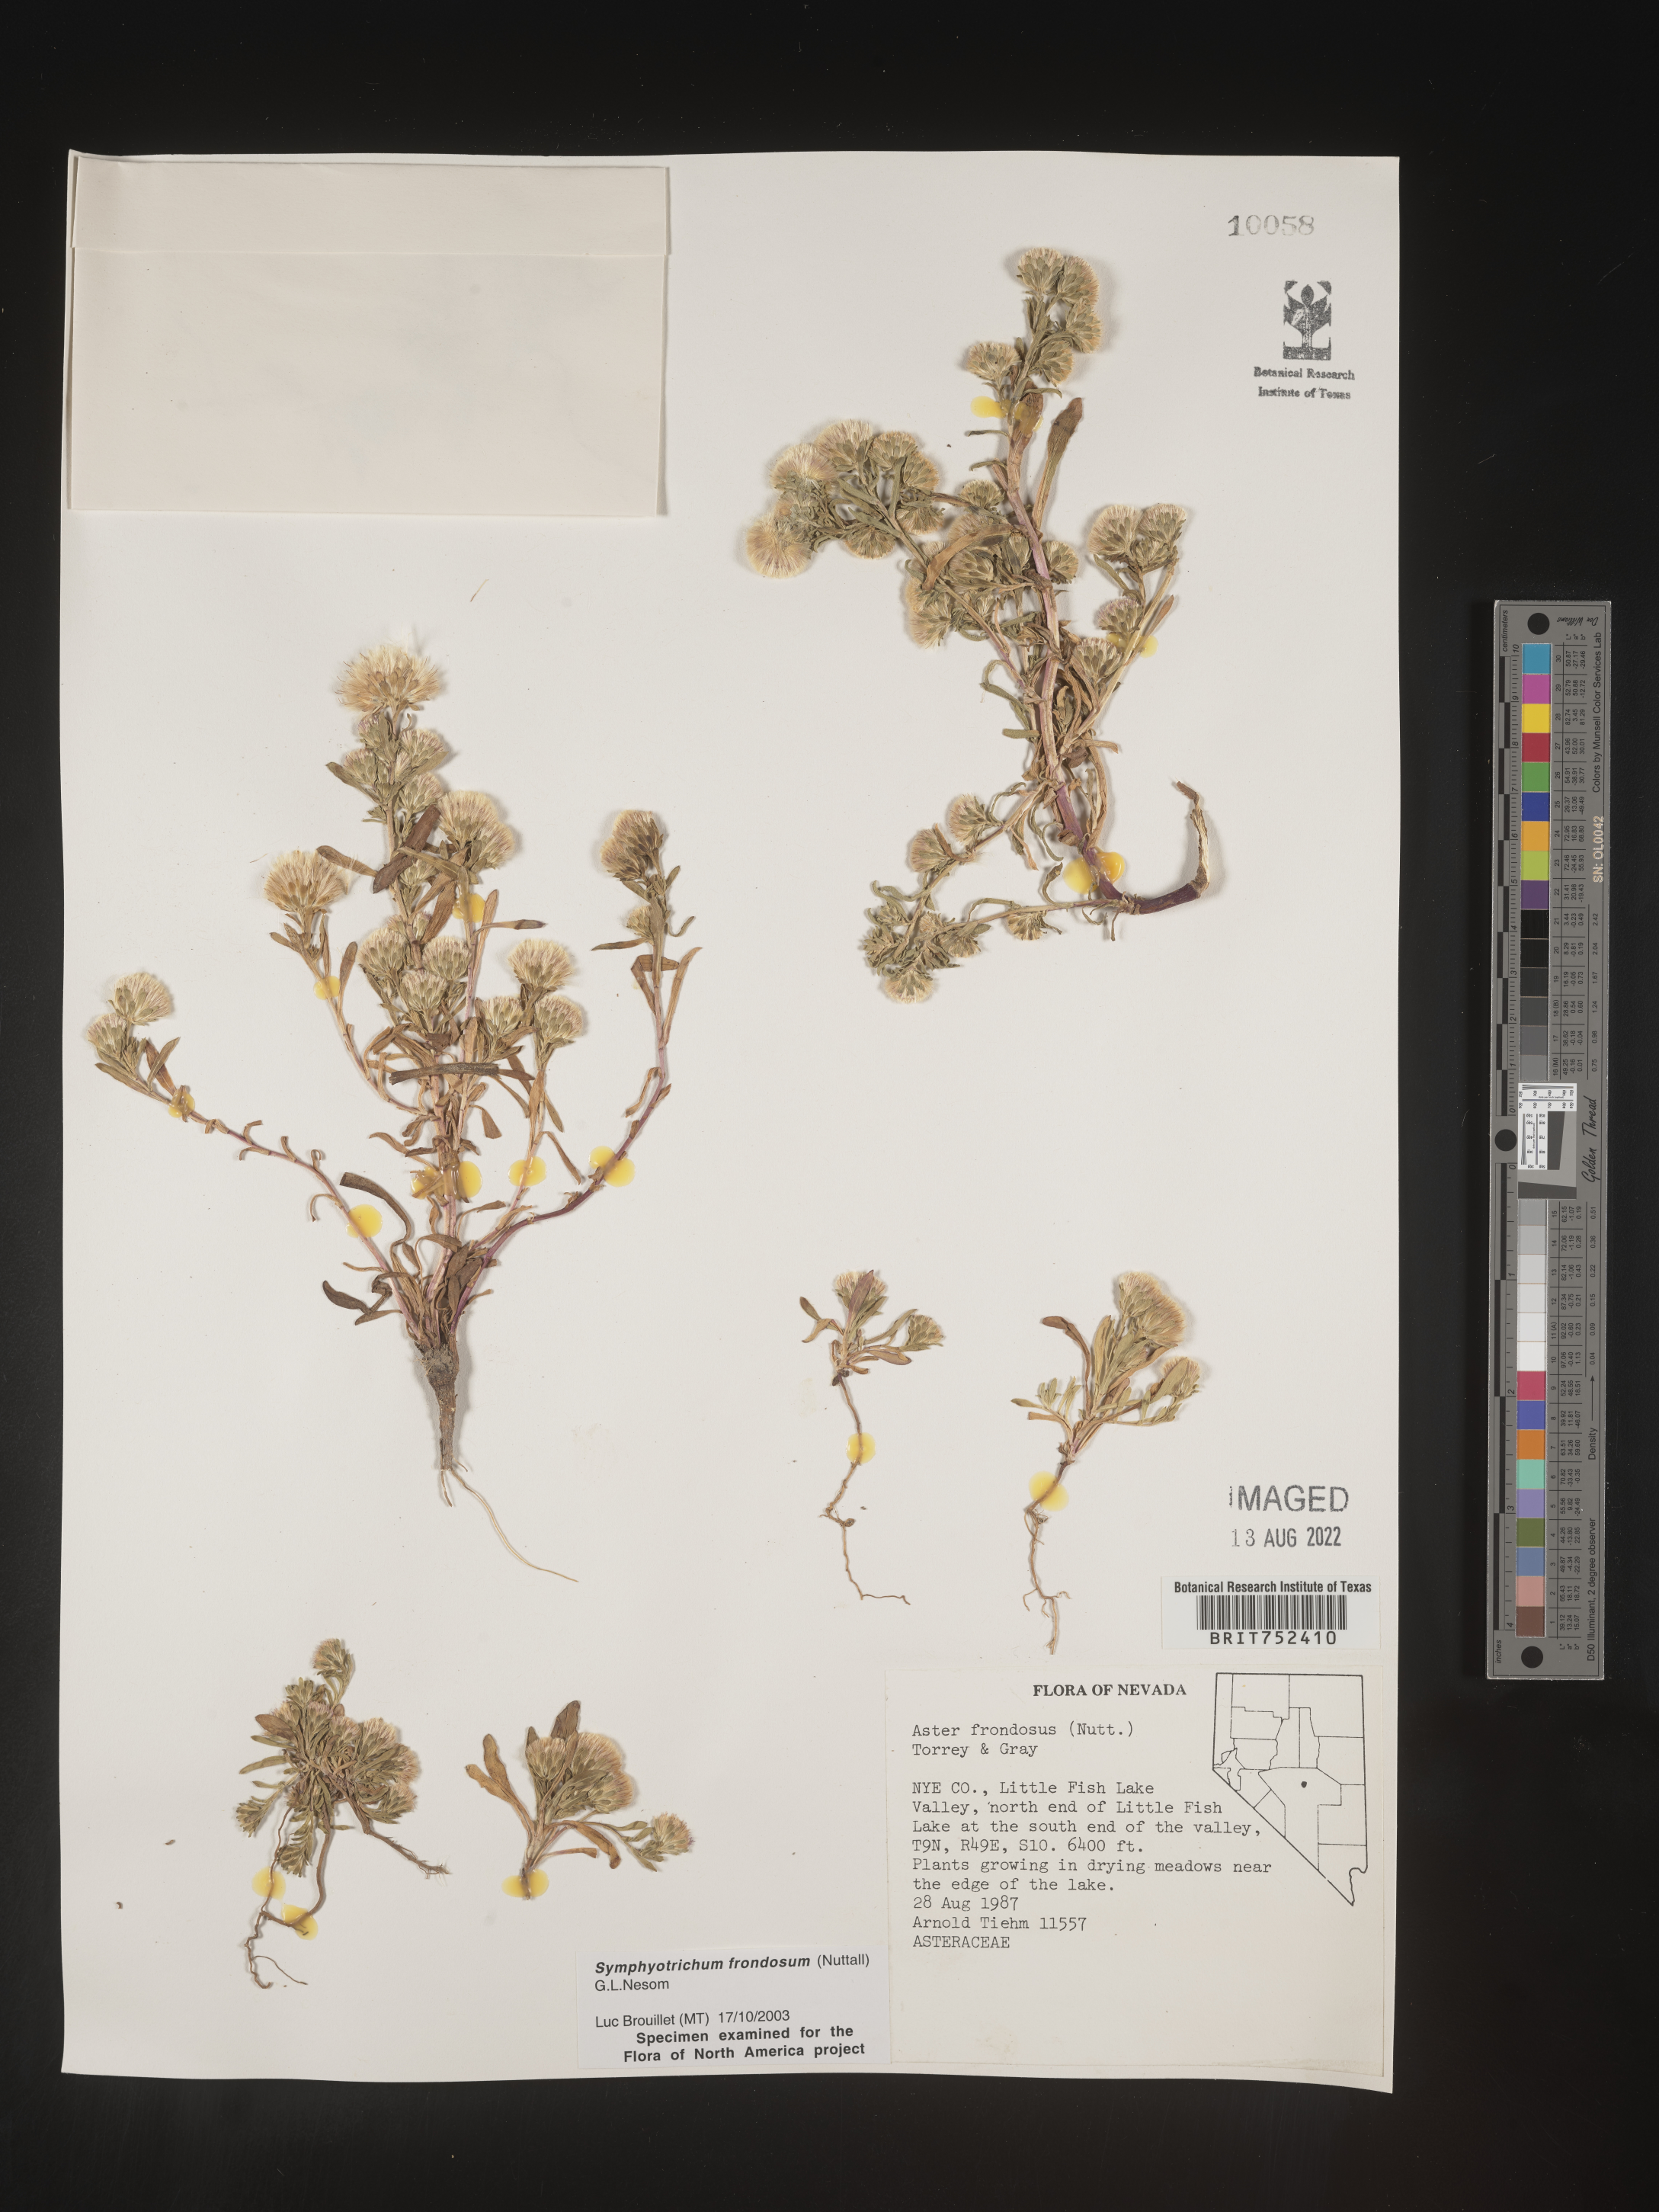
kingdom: Plantae
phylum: Tracheophyta
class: Magnoliopsida
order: Asterales
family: Asteraceae
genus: Symphyotrichum
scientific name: Symphyotrichum frondosum
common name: Leafy aster
